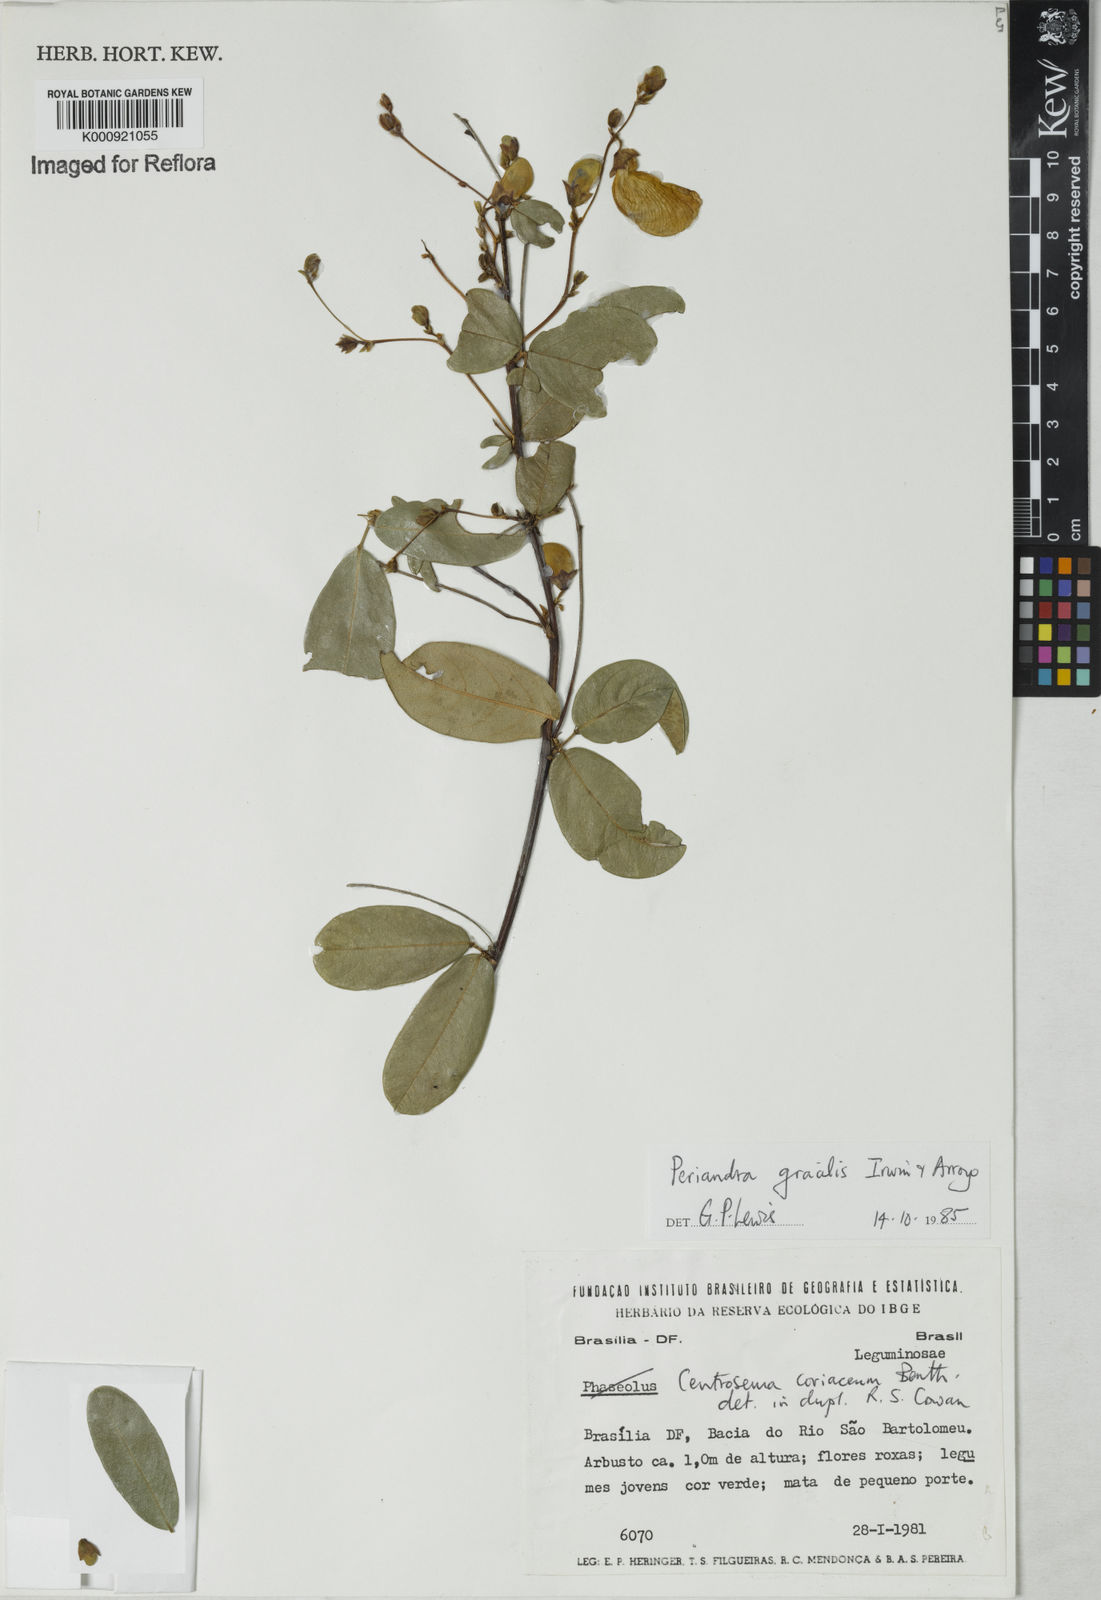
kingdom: Plantae
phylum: Tracheophyta
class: Magnoliopsida
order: Fabales
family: Fabaceae
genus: Periandra
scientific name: Periandra gracilis
